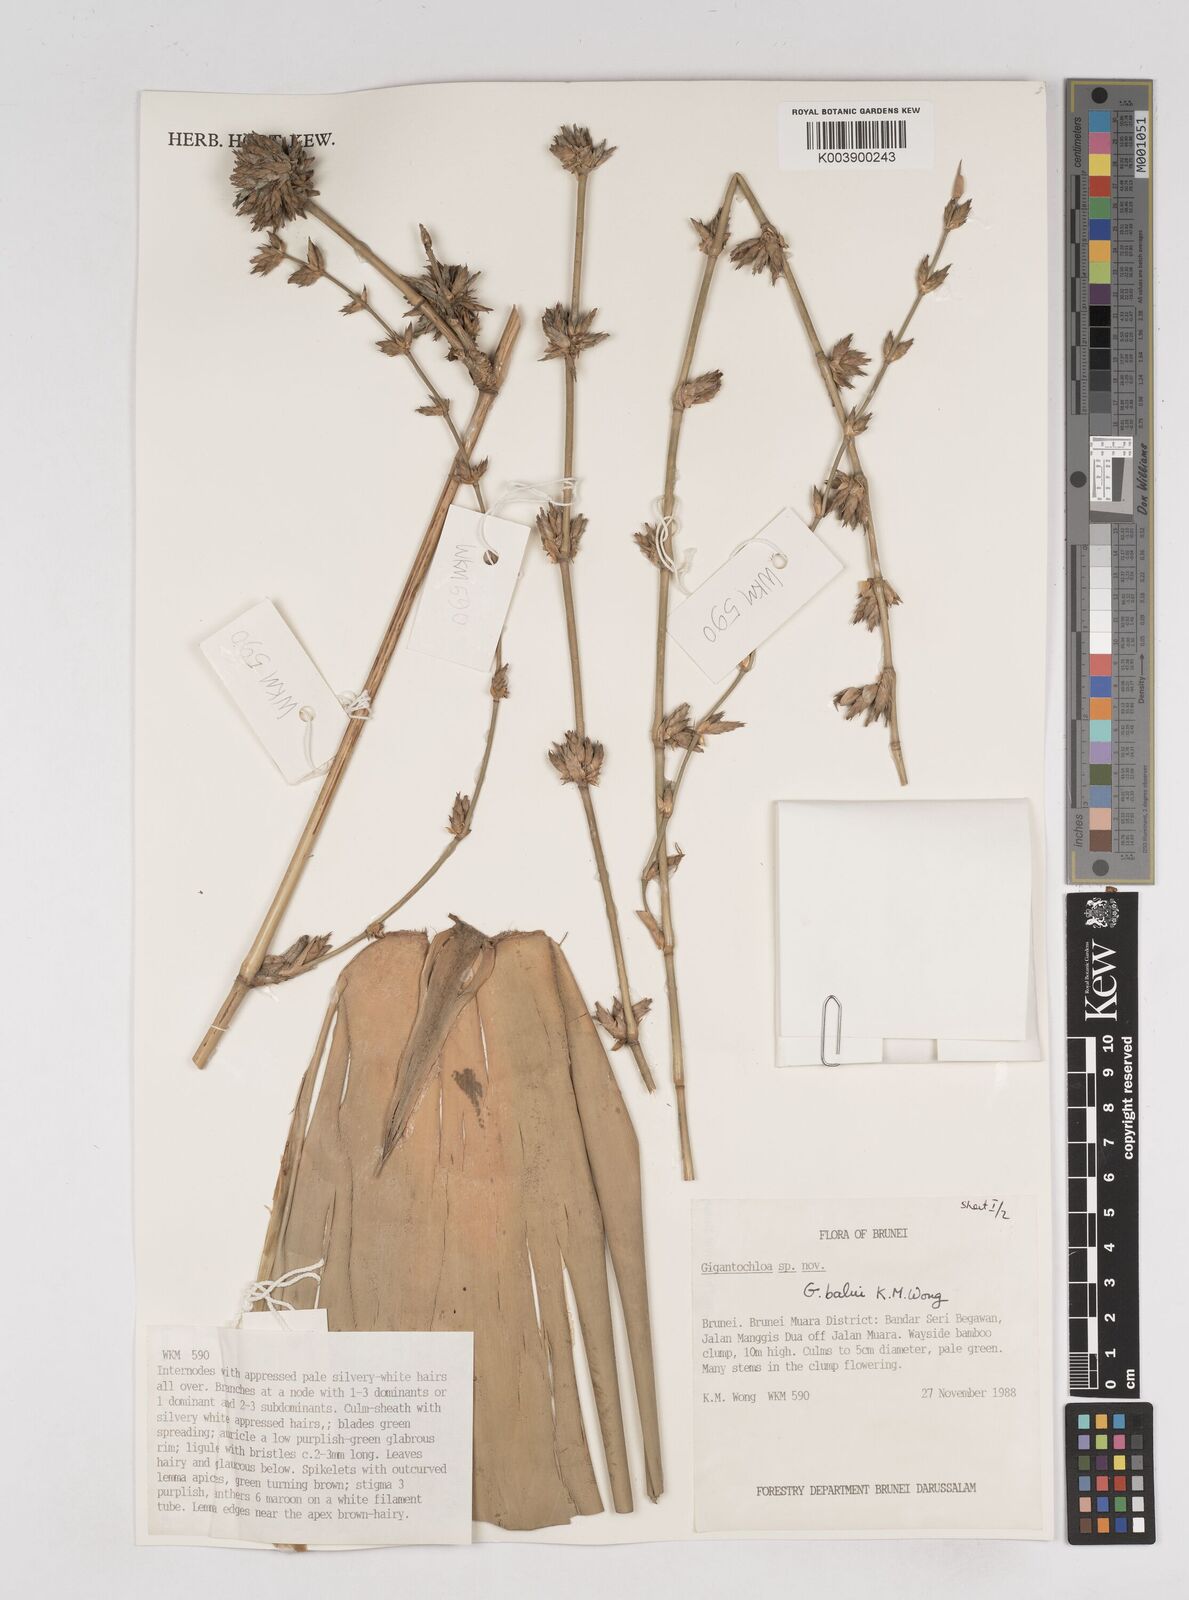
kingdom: Plantae
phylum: Tracheophyta
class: Liliopsida
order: Poales
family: Poaceae
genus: Gigantochloa
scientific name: Gigantochloa balui
